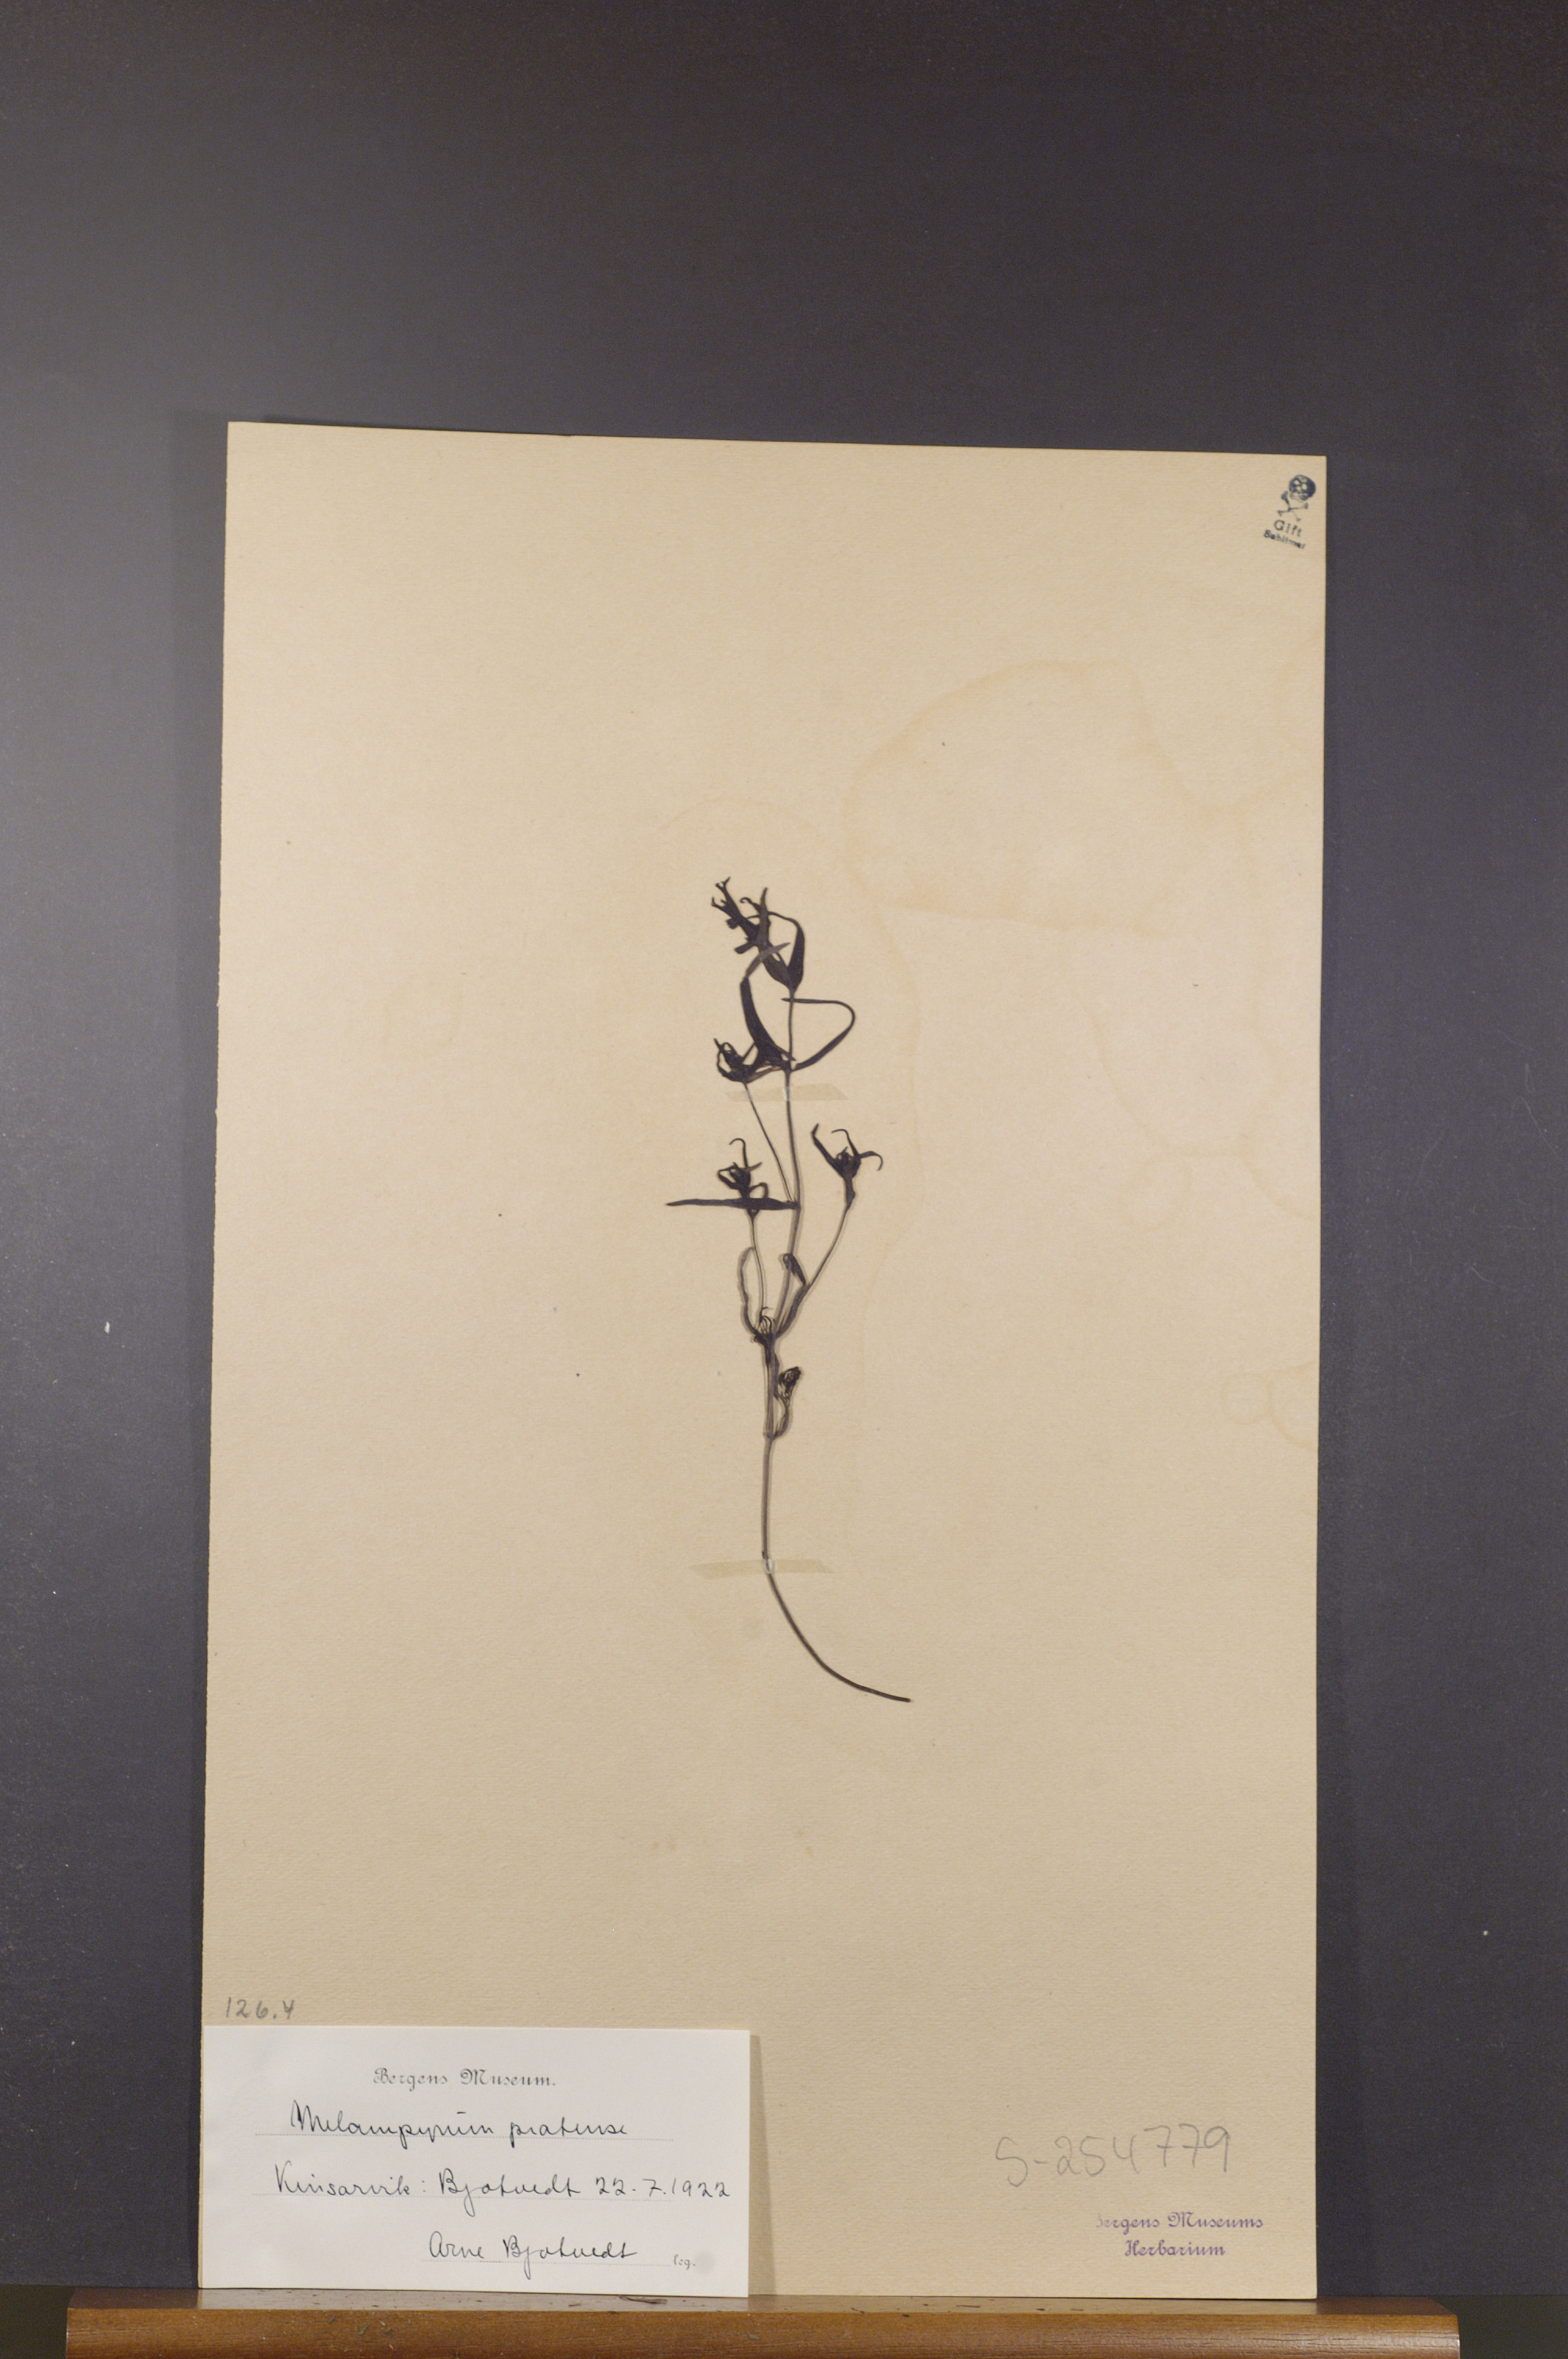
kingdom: Plantae
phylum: Tracheophyta
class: Magnoliopsida
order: Lamiales
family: Orobanchaceae
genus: Melampyrum
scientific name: Melampyrum pratense
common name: Common cow-wheat
